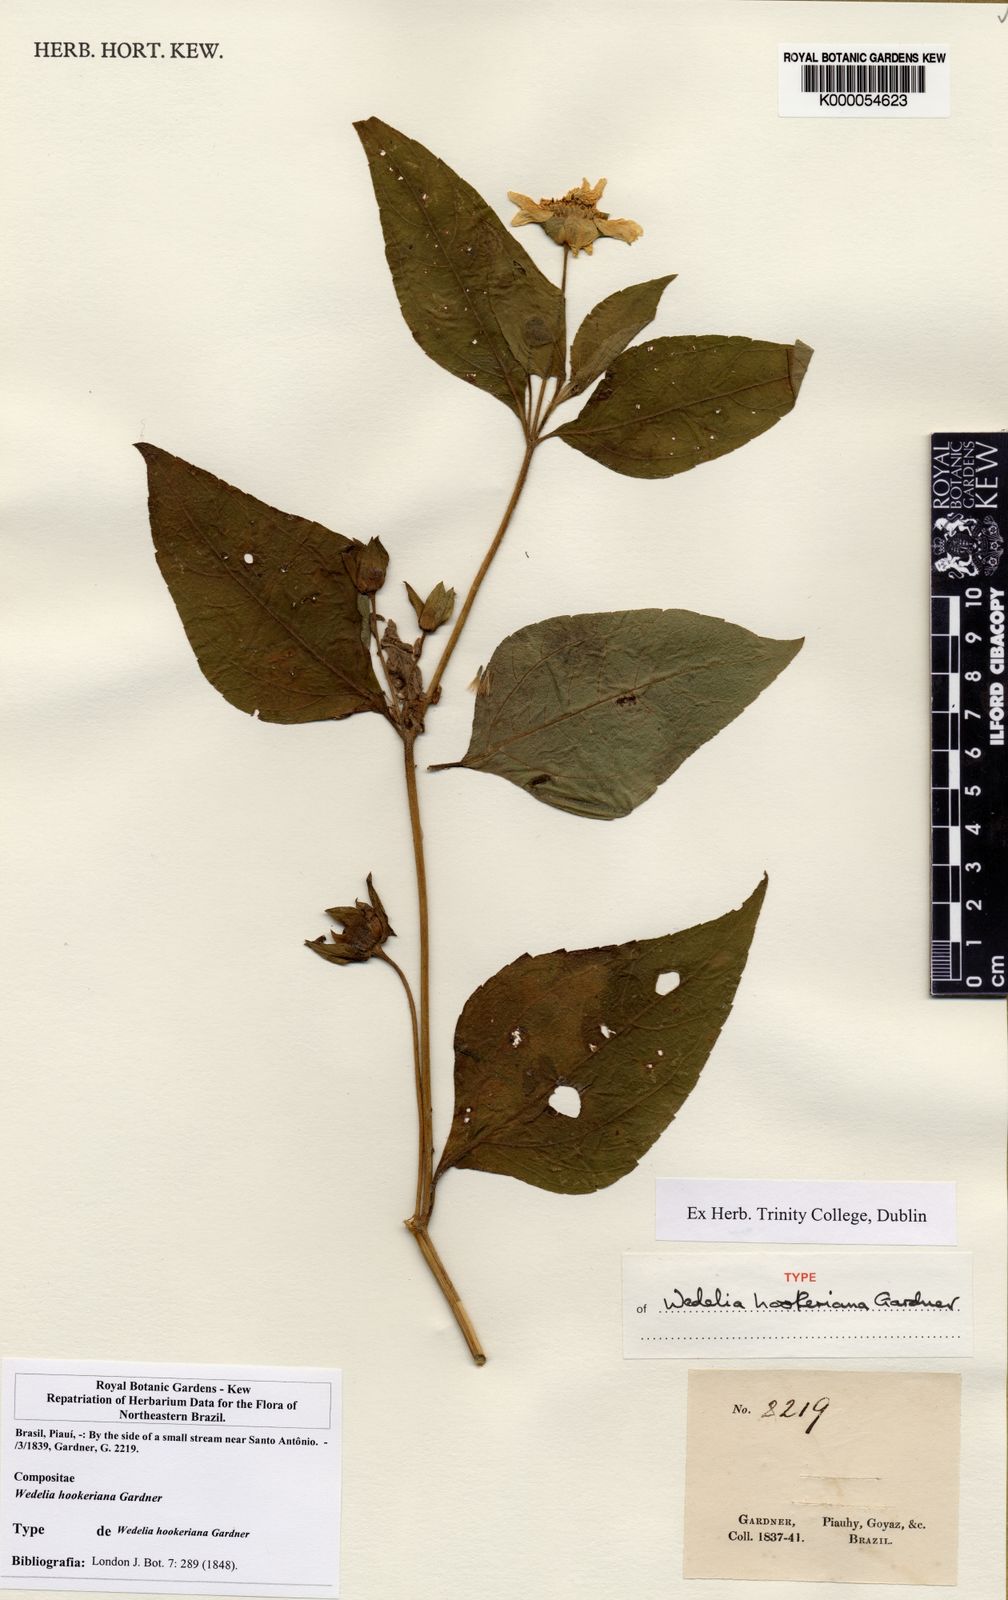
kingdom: Plantae
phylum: Tracheophyta
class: Magnoliopsida
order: Asterales
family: Asteraceae
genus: Aspilia
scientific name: Aspilia
